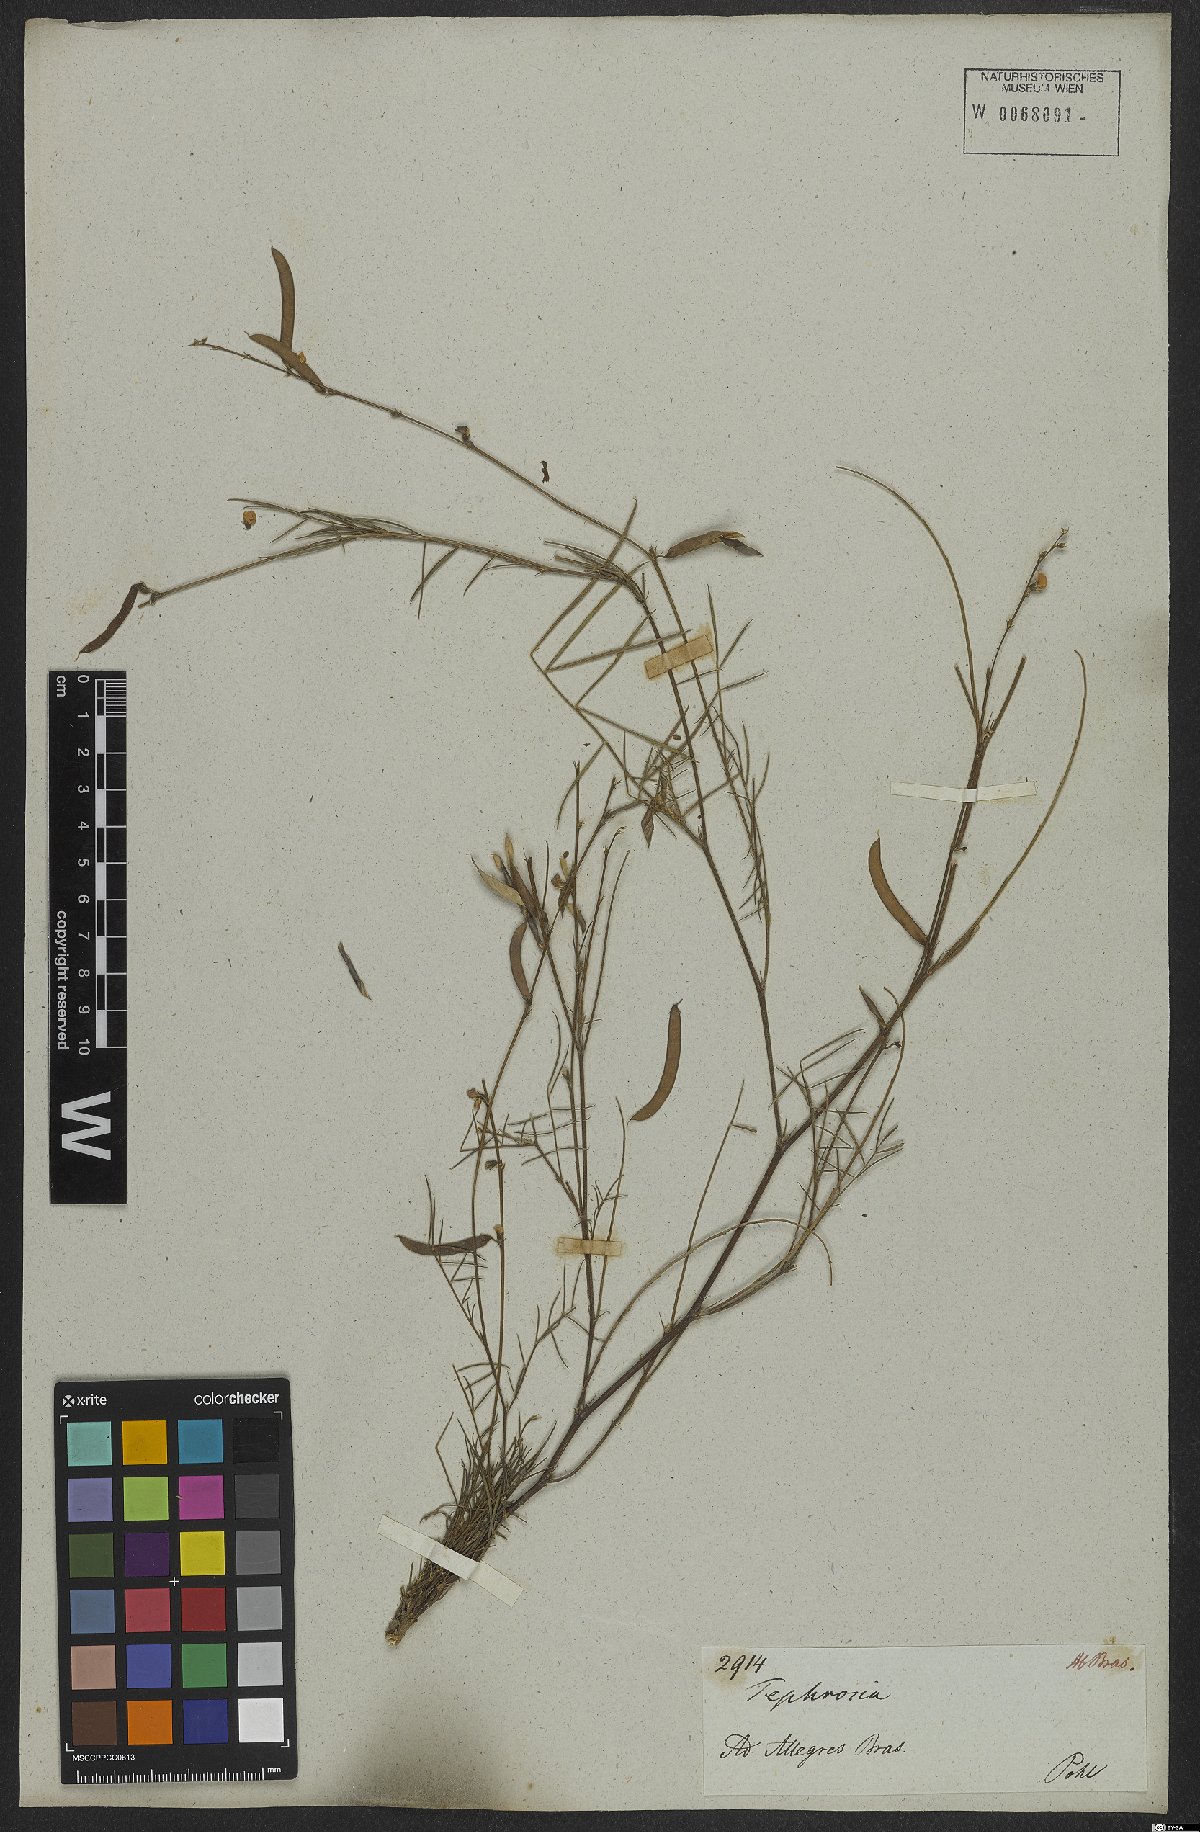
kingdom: Plantae
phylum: Tracheophyta
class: Magnoliopsida
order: Fabales
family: Fabaceae
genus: Tephrosia
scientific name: Tephrosia
